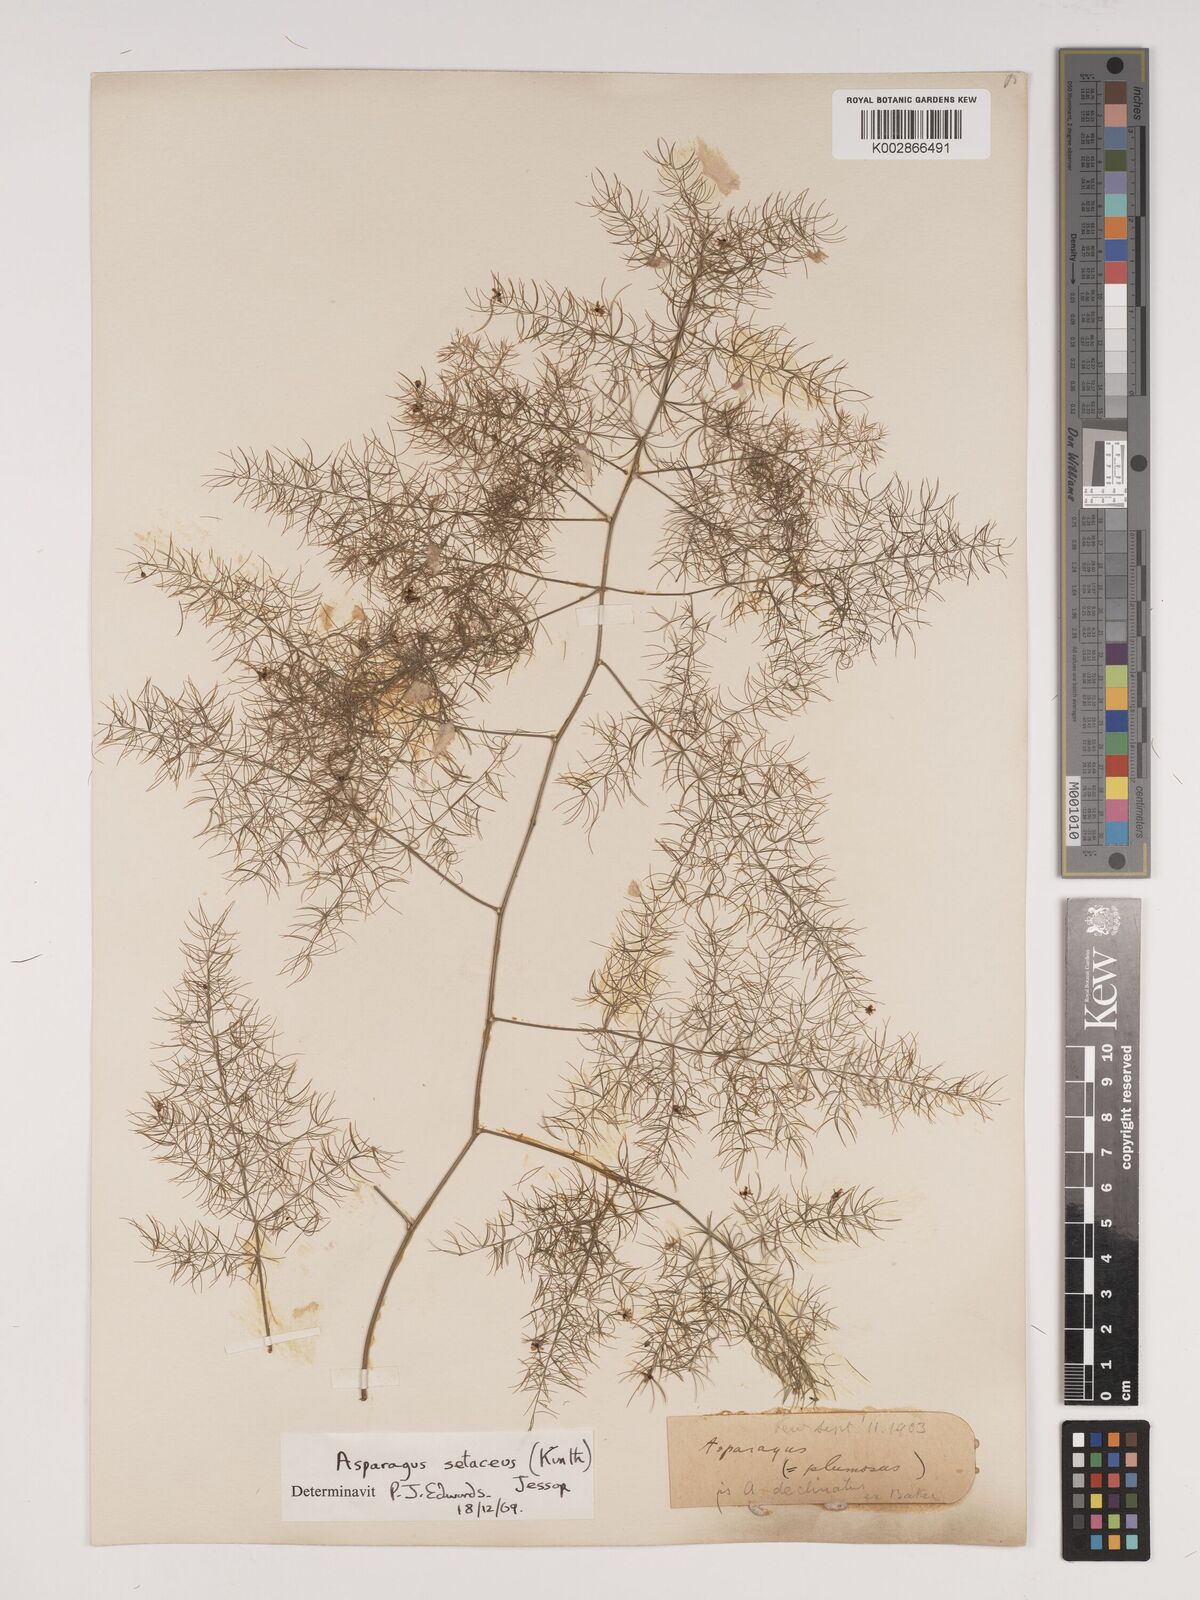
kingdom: Plantae
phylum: Tracheophyta
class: Liliopsida
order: Asparagales
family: Asparagaceae
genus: Asparagus
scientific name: Asparagus setaceus
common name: Common asparagus fern
